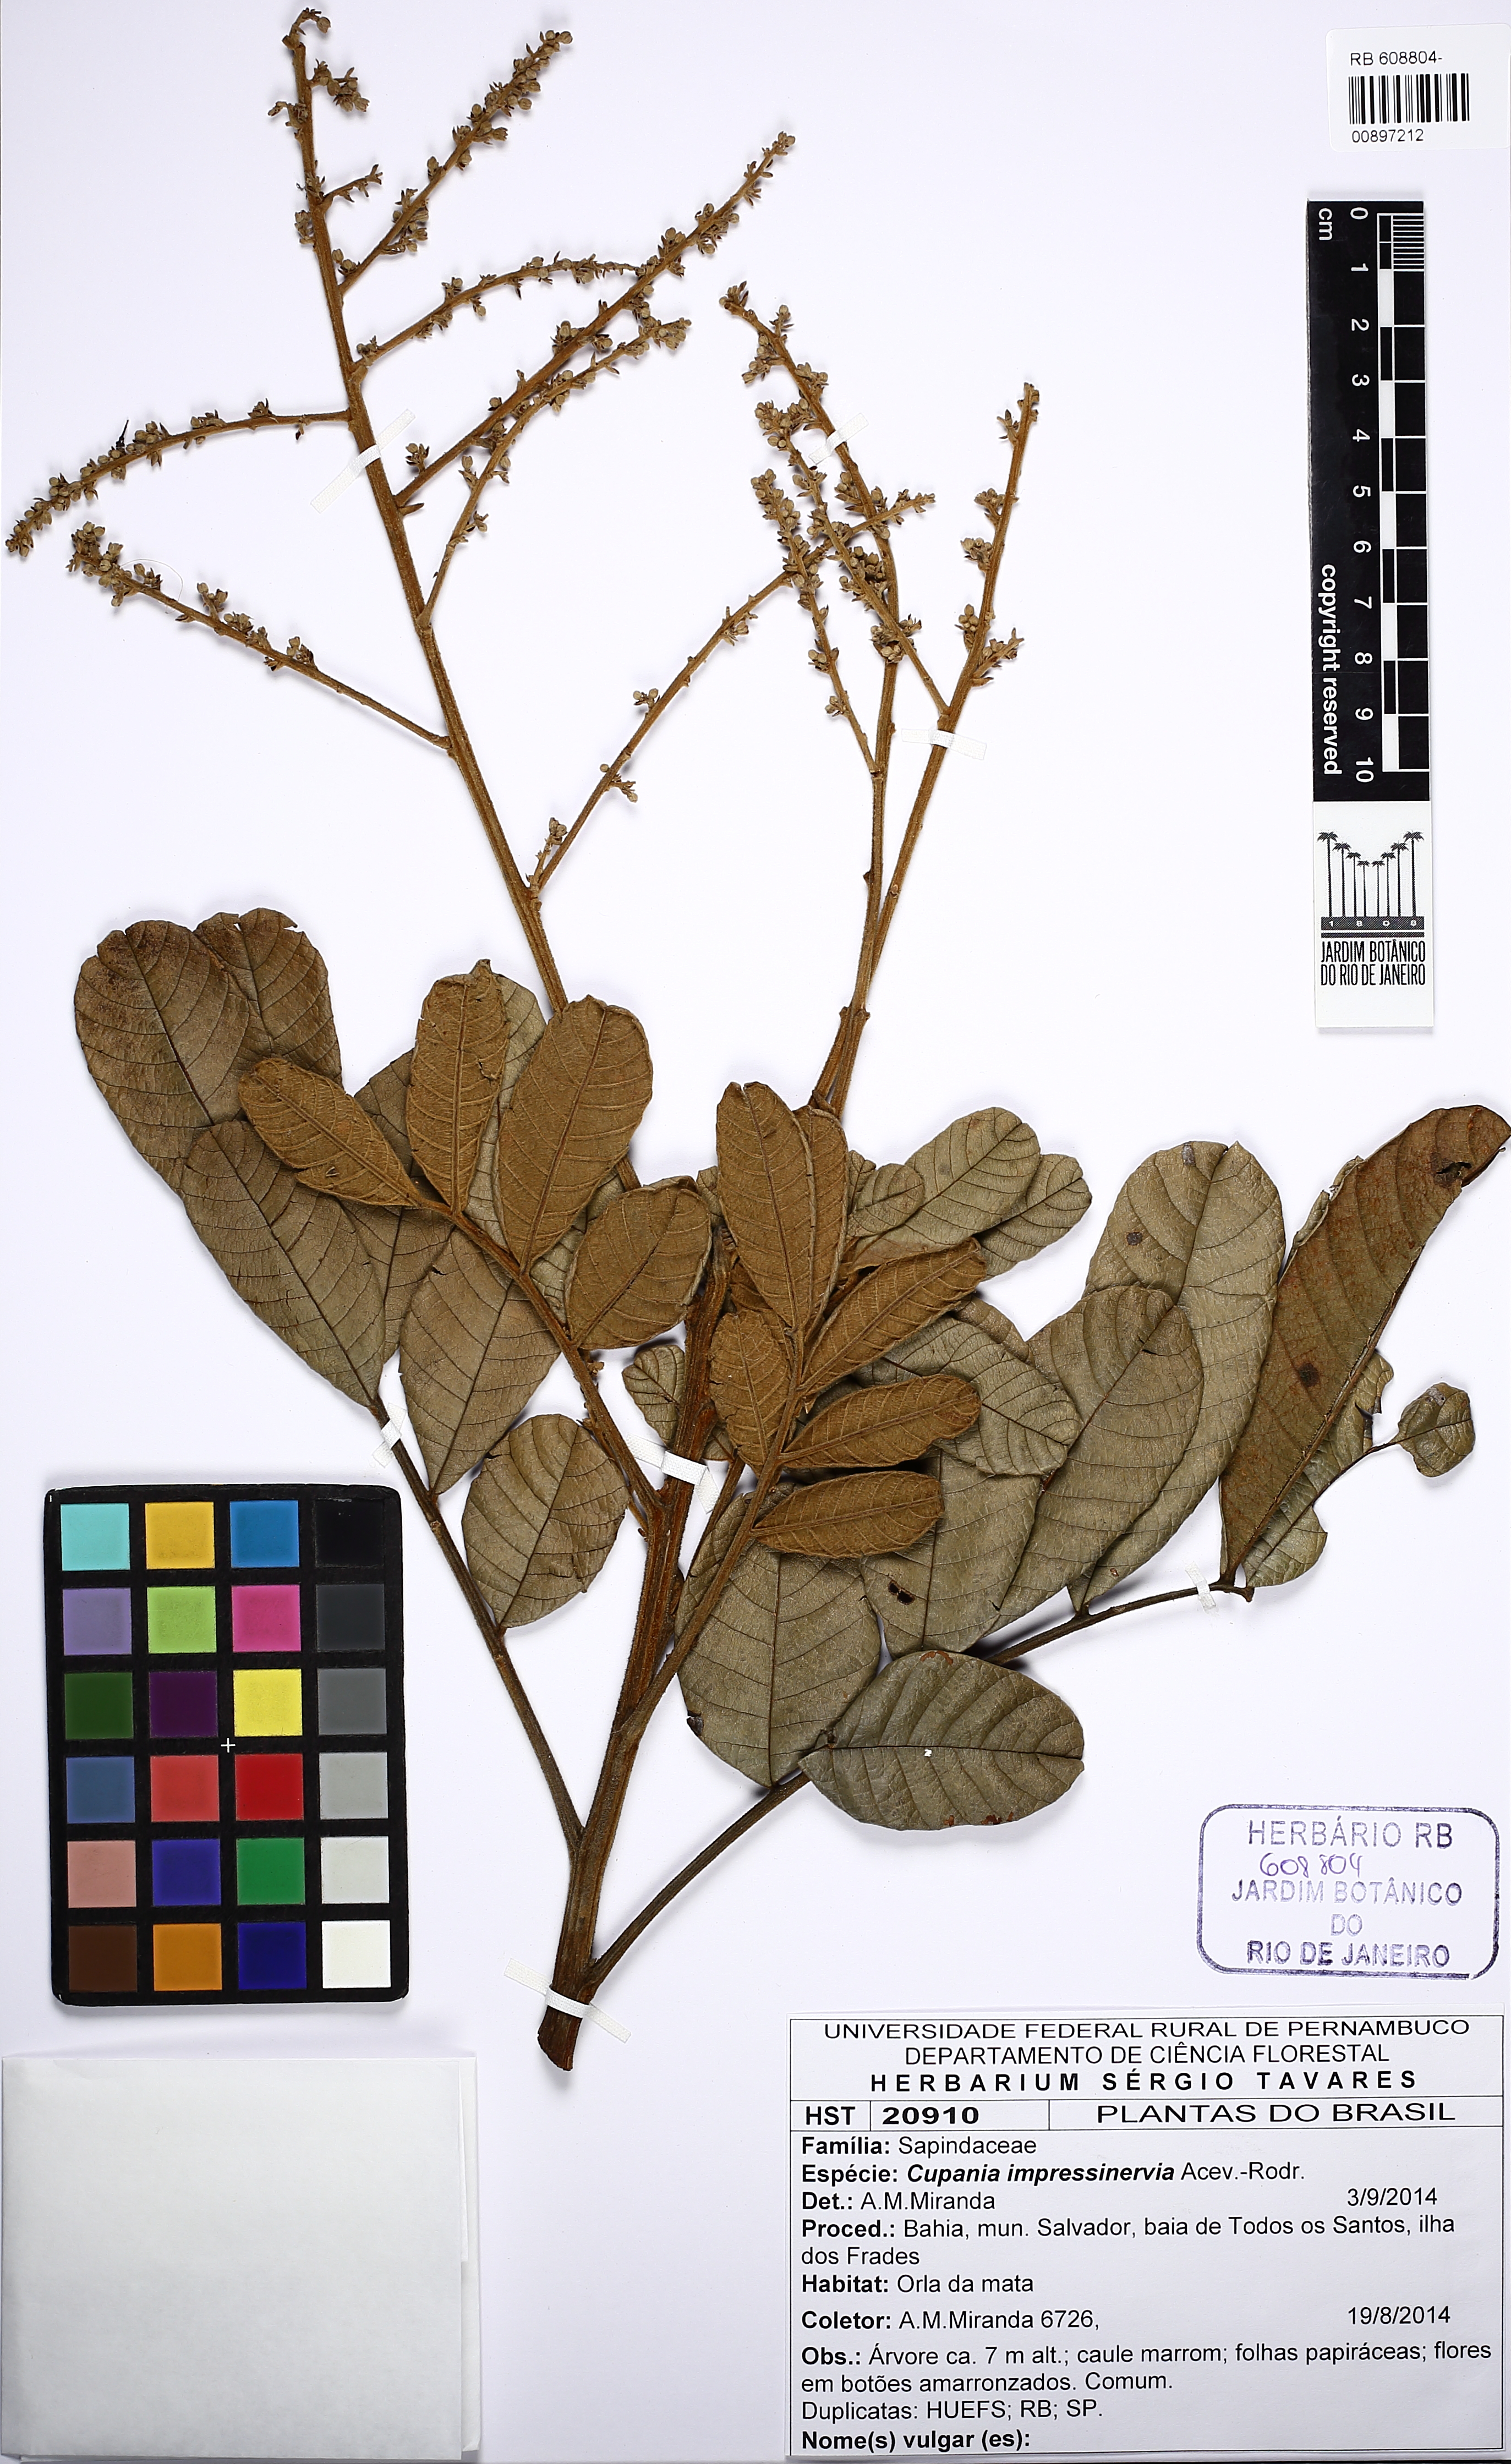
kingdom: Plantae
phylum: Tracheophyta
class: Magnoliopsida
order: Sapindales
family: Sapindaceae
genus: Cupania
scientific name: Cupania impressinervia
